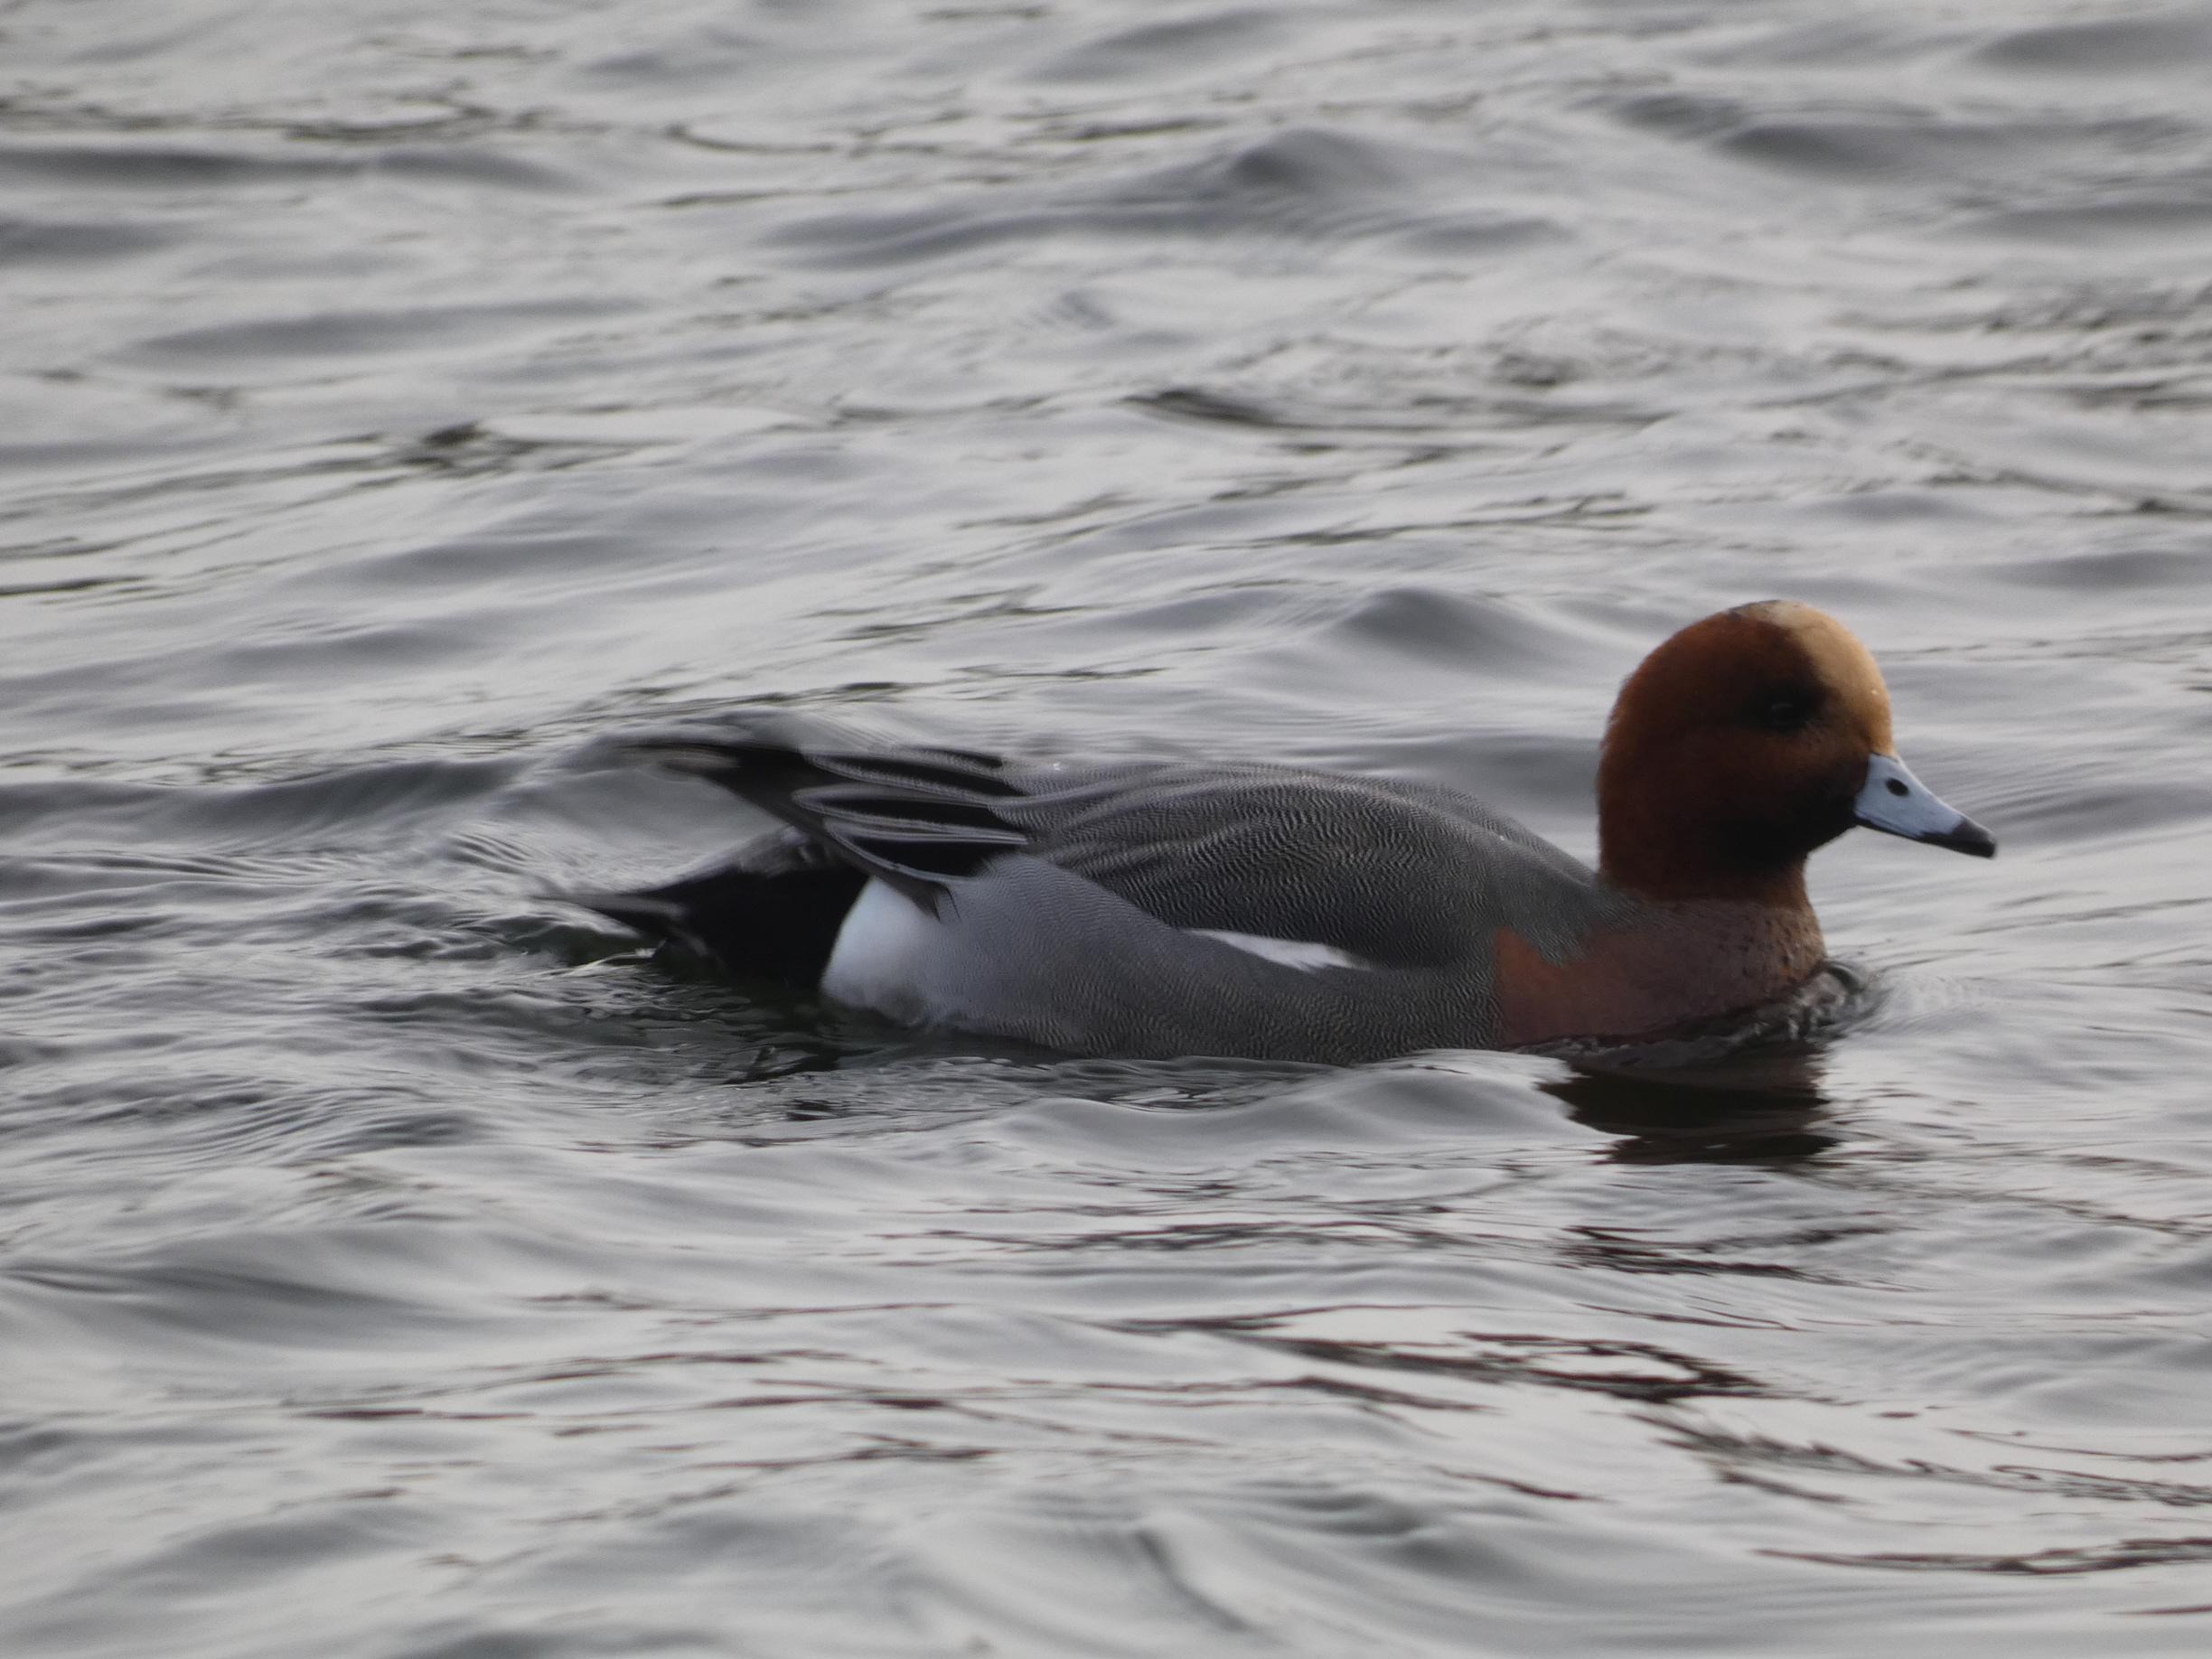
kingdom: Animalia
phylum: Chordata
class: Aves
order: Anseriformes
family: Anatidae
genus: Mareca
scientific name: Mareca penelope
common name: Pibeand
